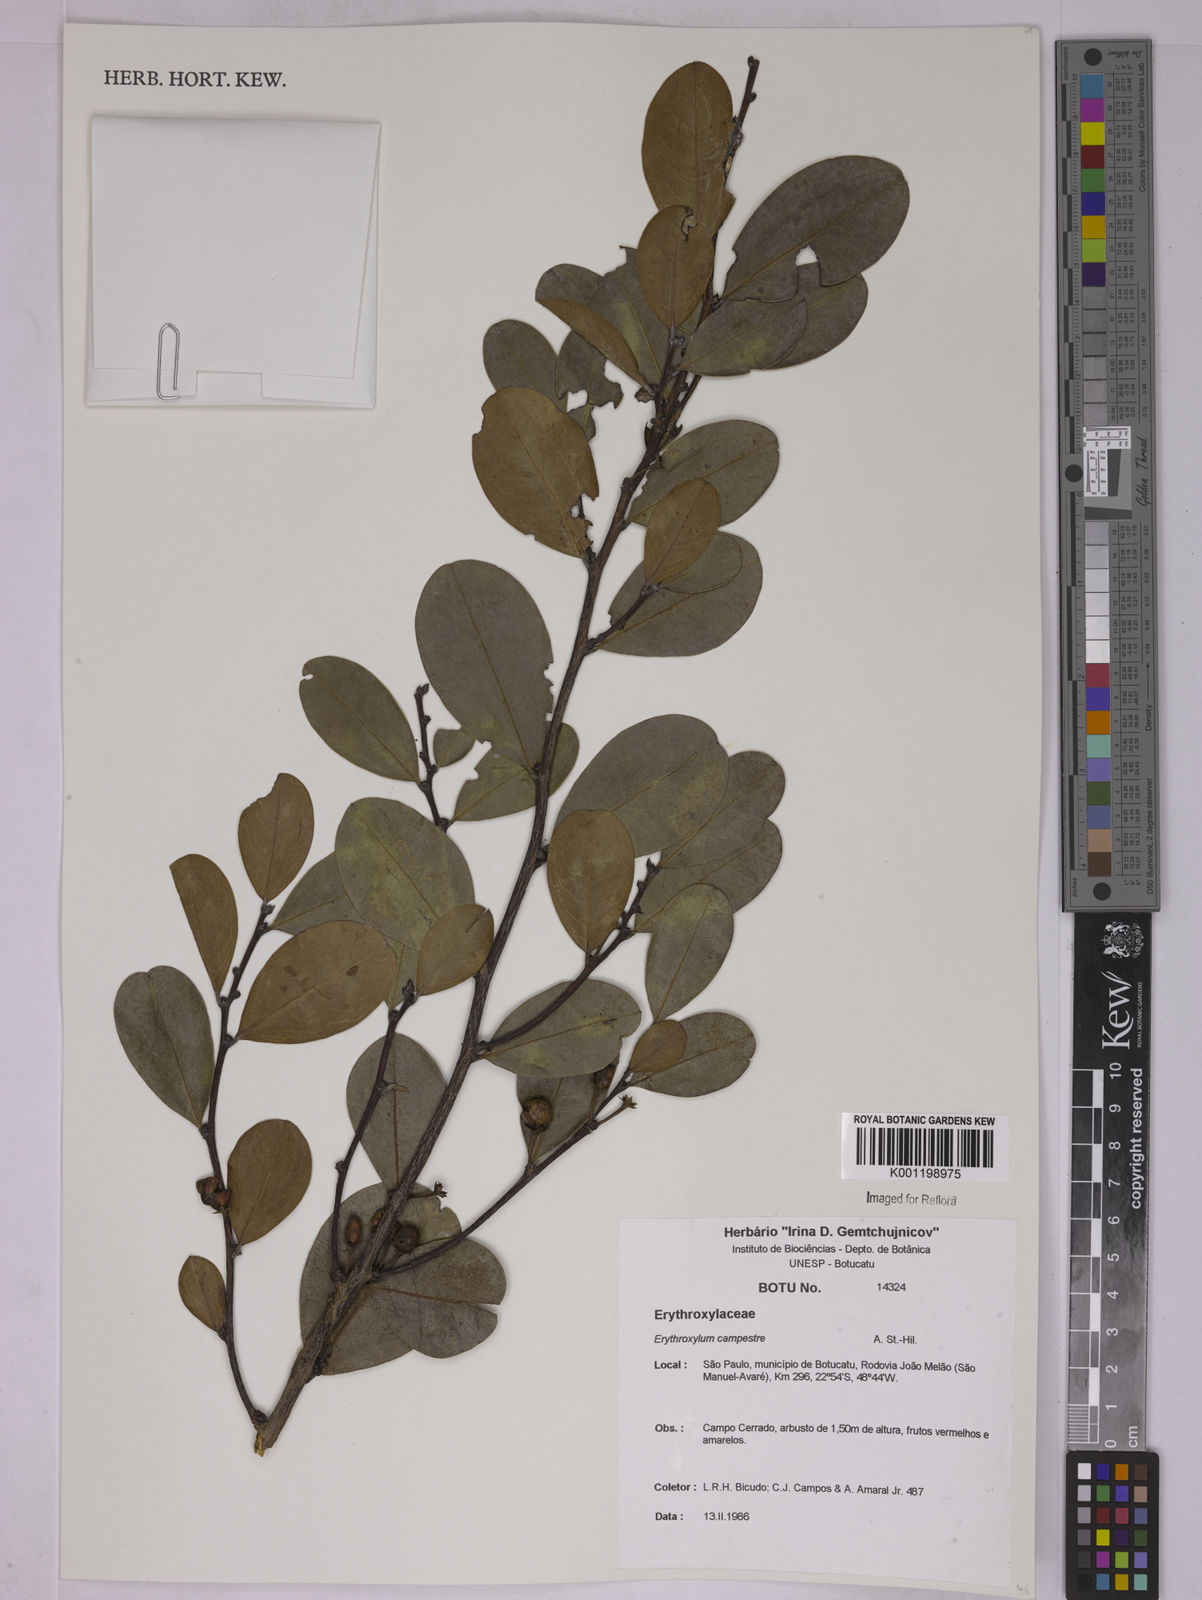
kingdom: Plantae
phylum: Tracheophyta
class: Magnoliopsida
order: Malpighiales
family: Erythroxylaceae
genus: Erythroxylum
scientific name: Erythroxylum campestre
